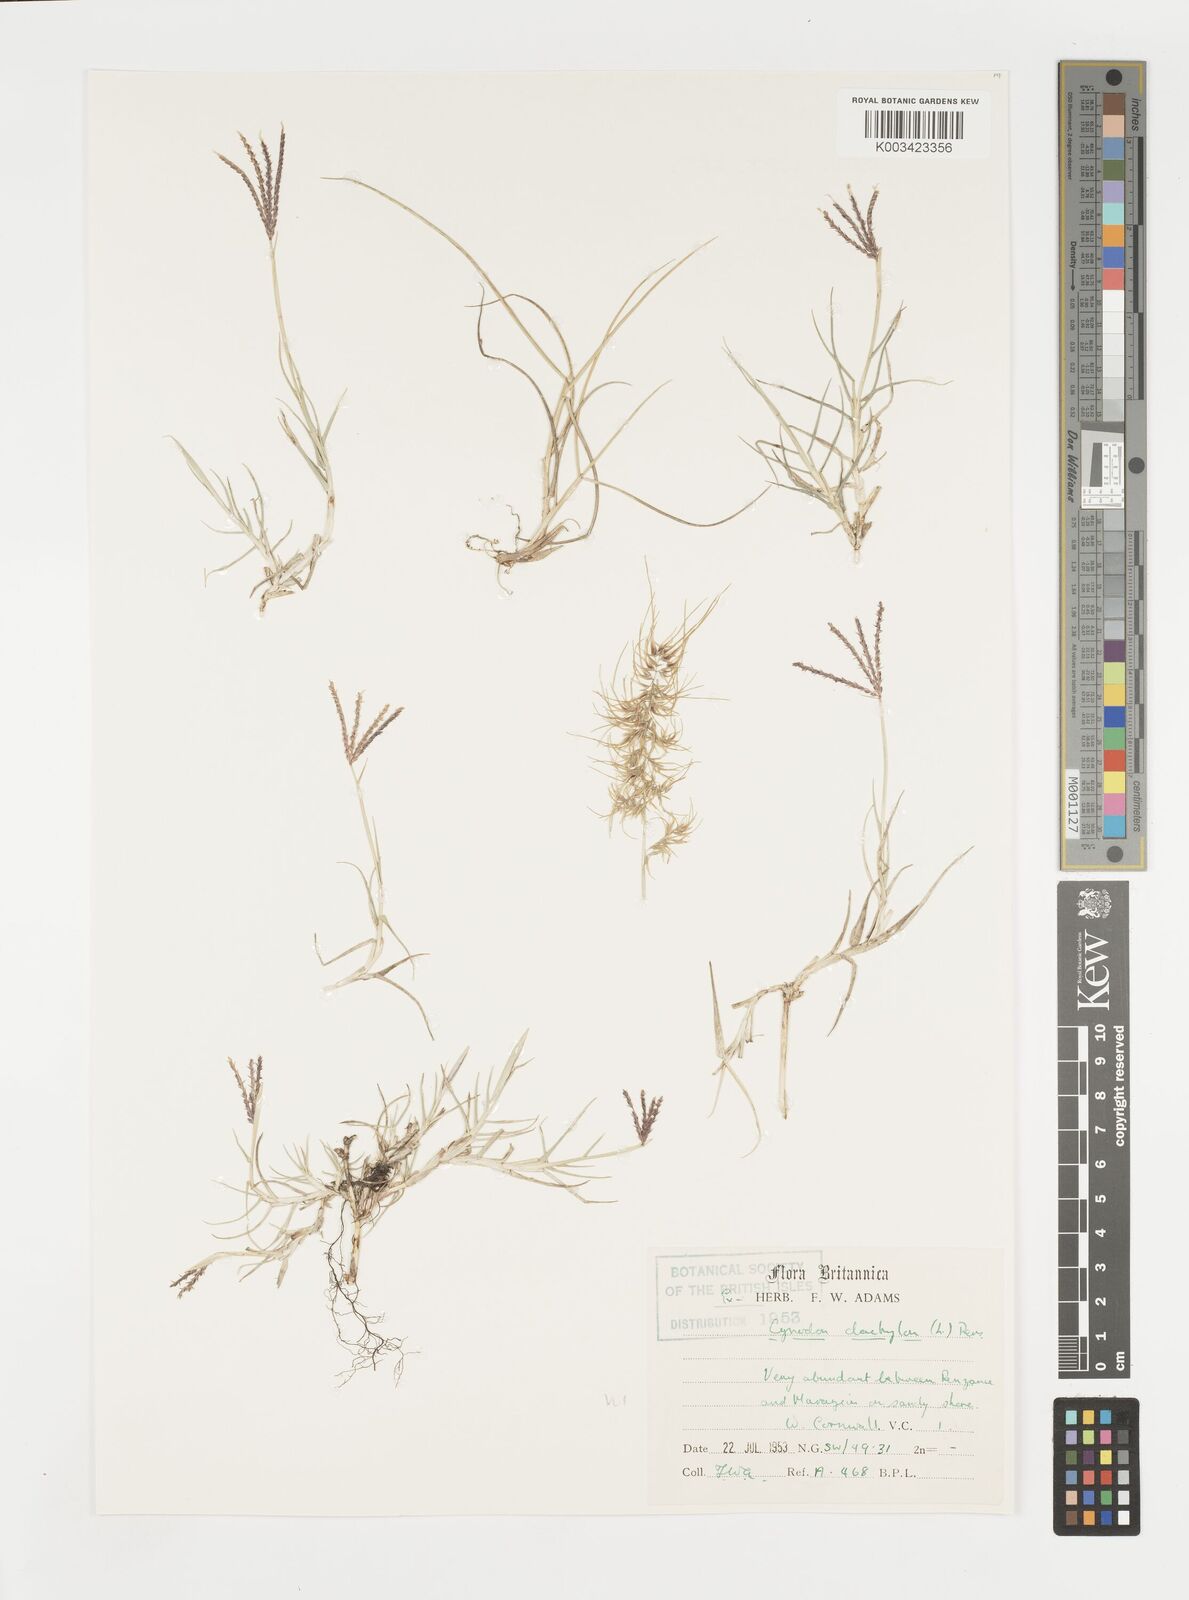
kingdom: Plantae
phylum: Tracheophyta
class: Liliopsida
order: Poales
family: Poaceae
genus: Cynodon
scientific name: Cynodon dactylon
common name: Bermuda grass
